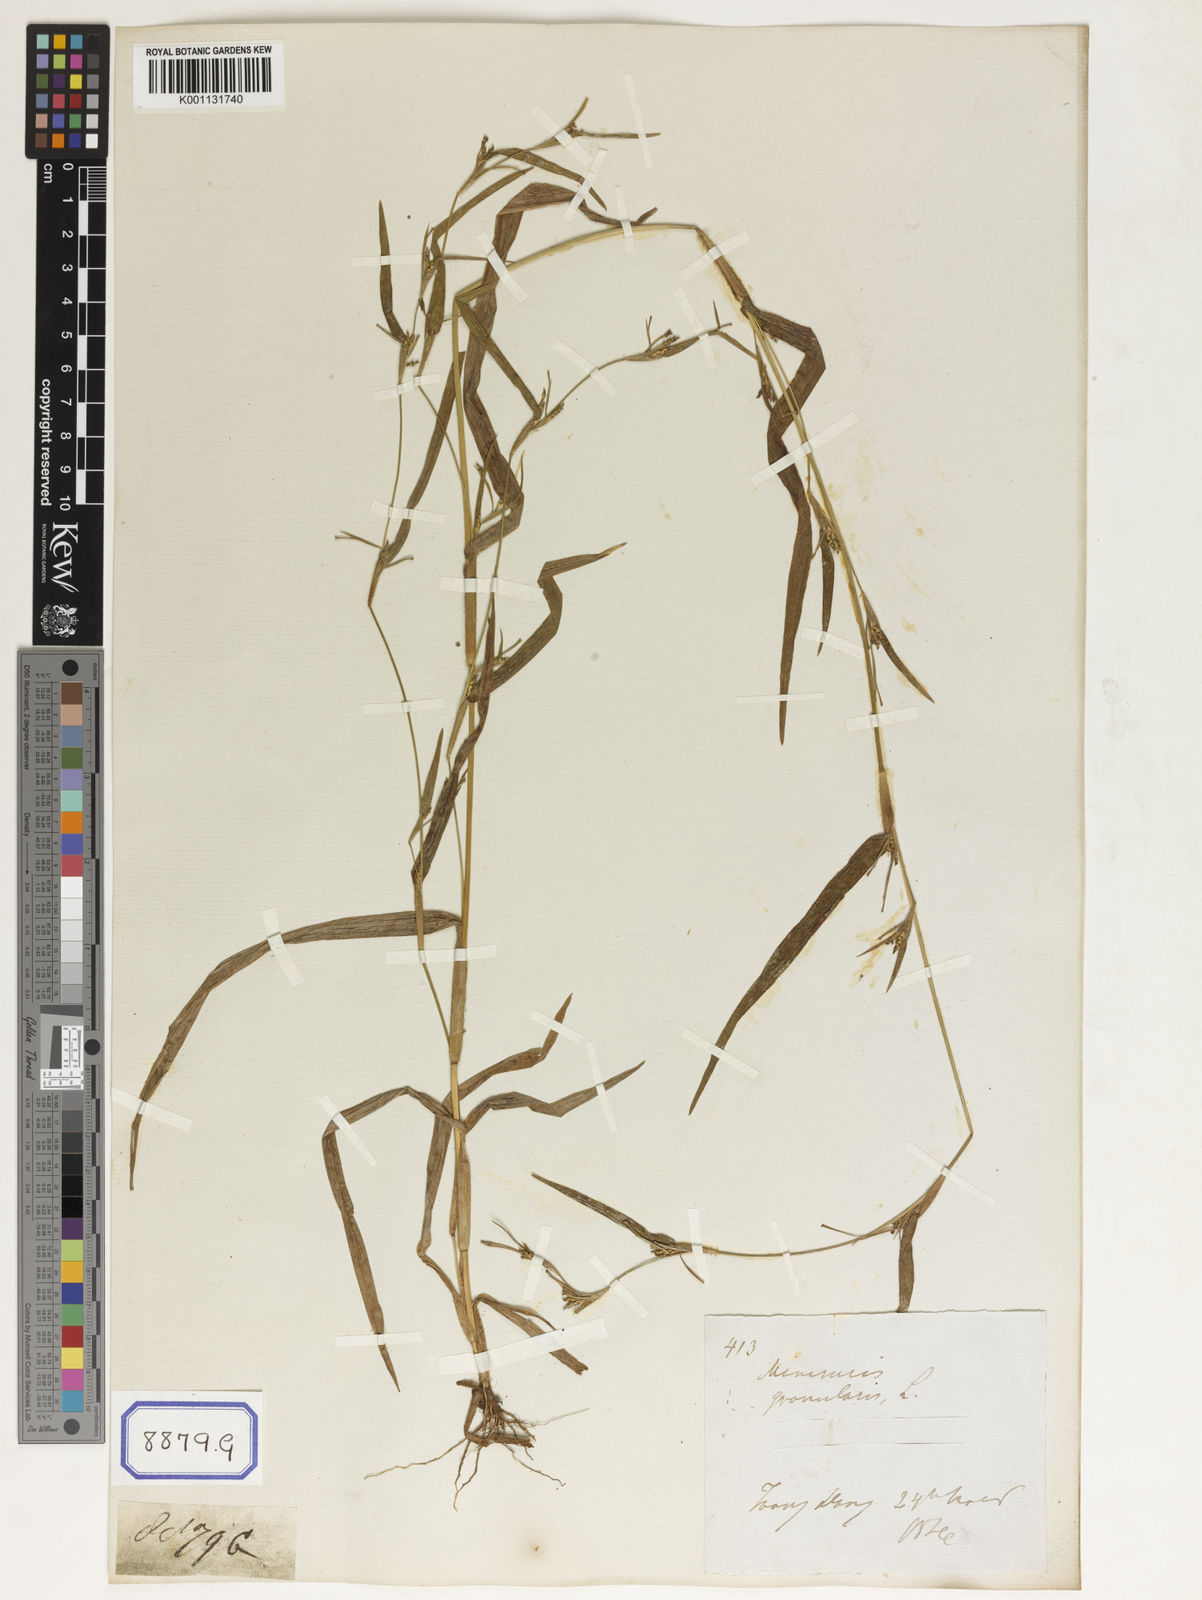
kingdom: Plantae
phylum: Tracheophyta
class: Liliopsida
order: Poales
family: Poaceae
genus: Manisuris
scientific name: Manisuris
